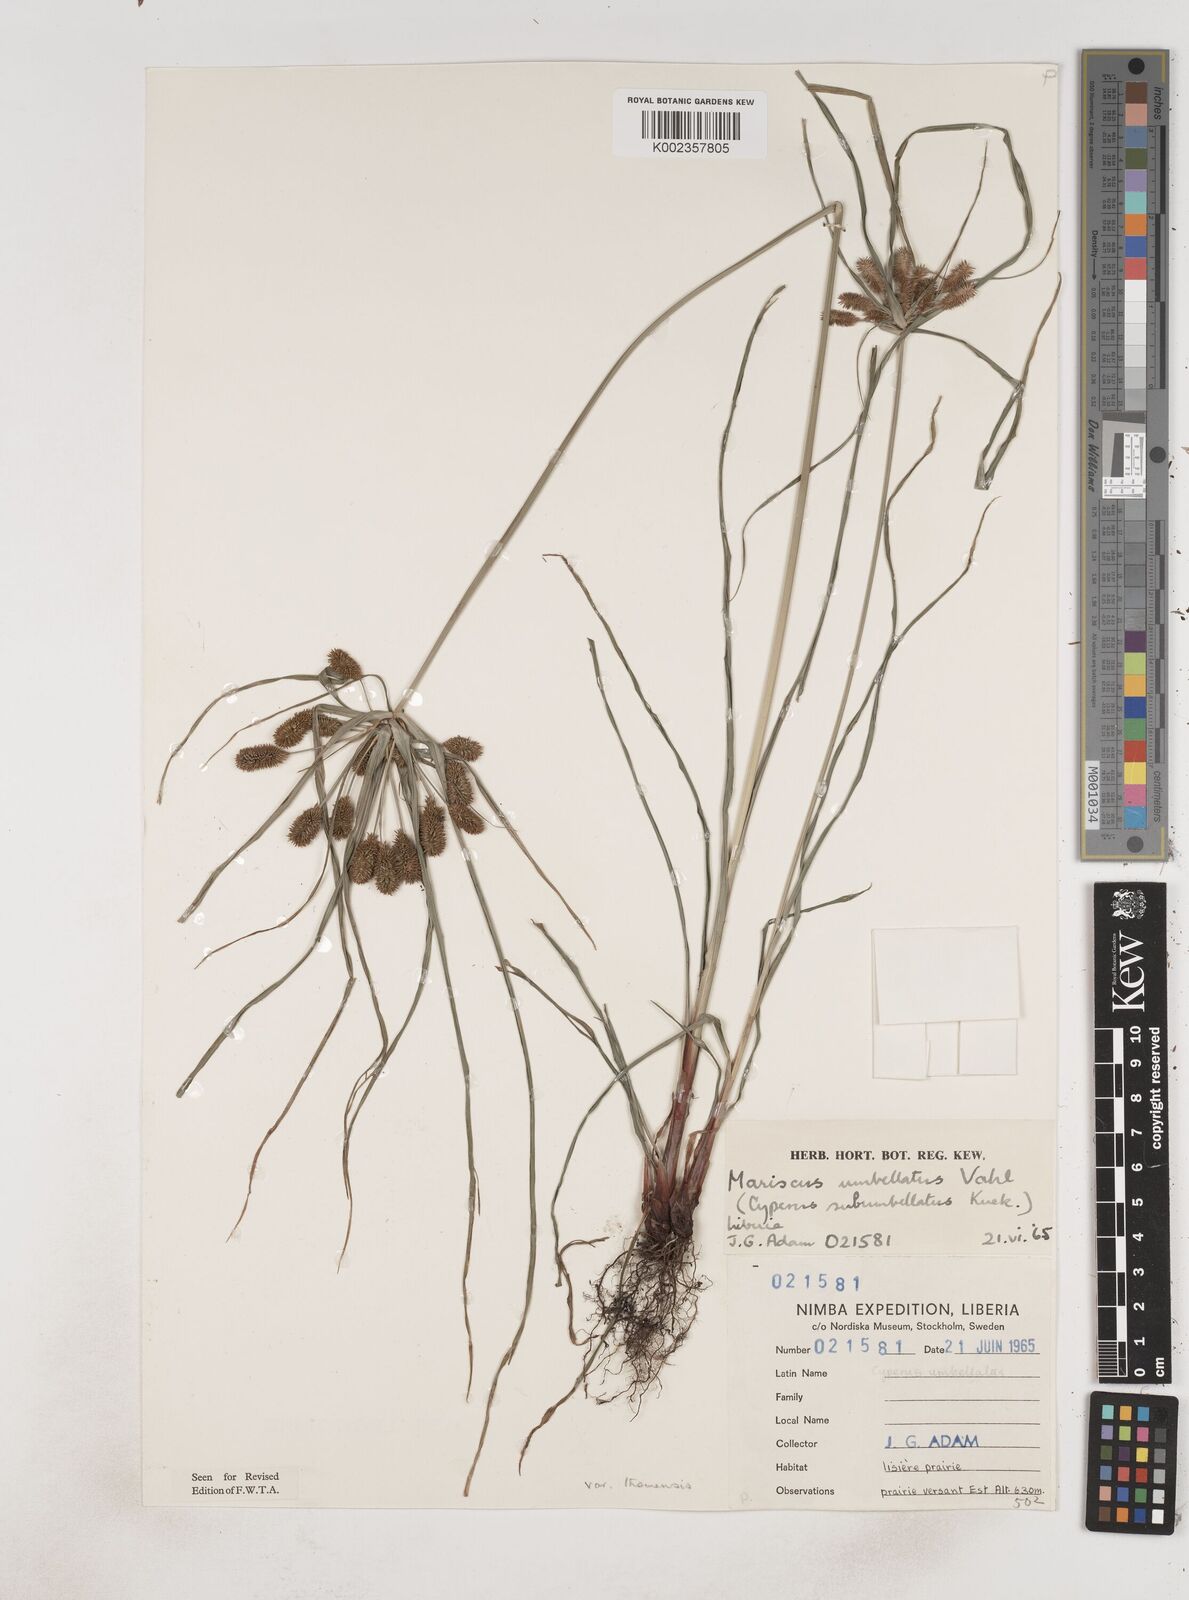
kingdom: Plantae
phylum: Tracheophyta
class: Liliopsida
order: Poales
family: Cyperaceae
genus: Cyperus
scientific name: Cyperus sublimis
